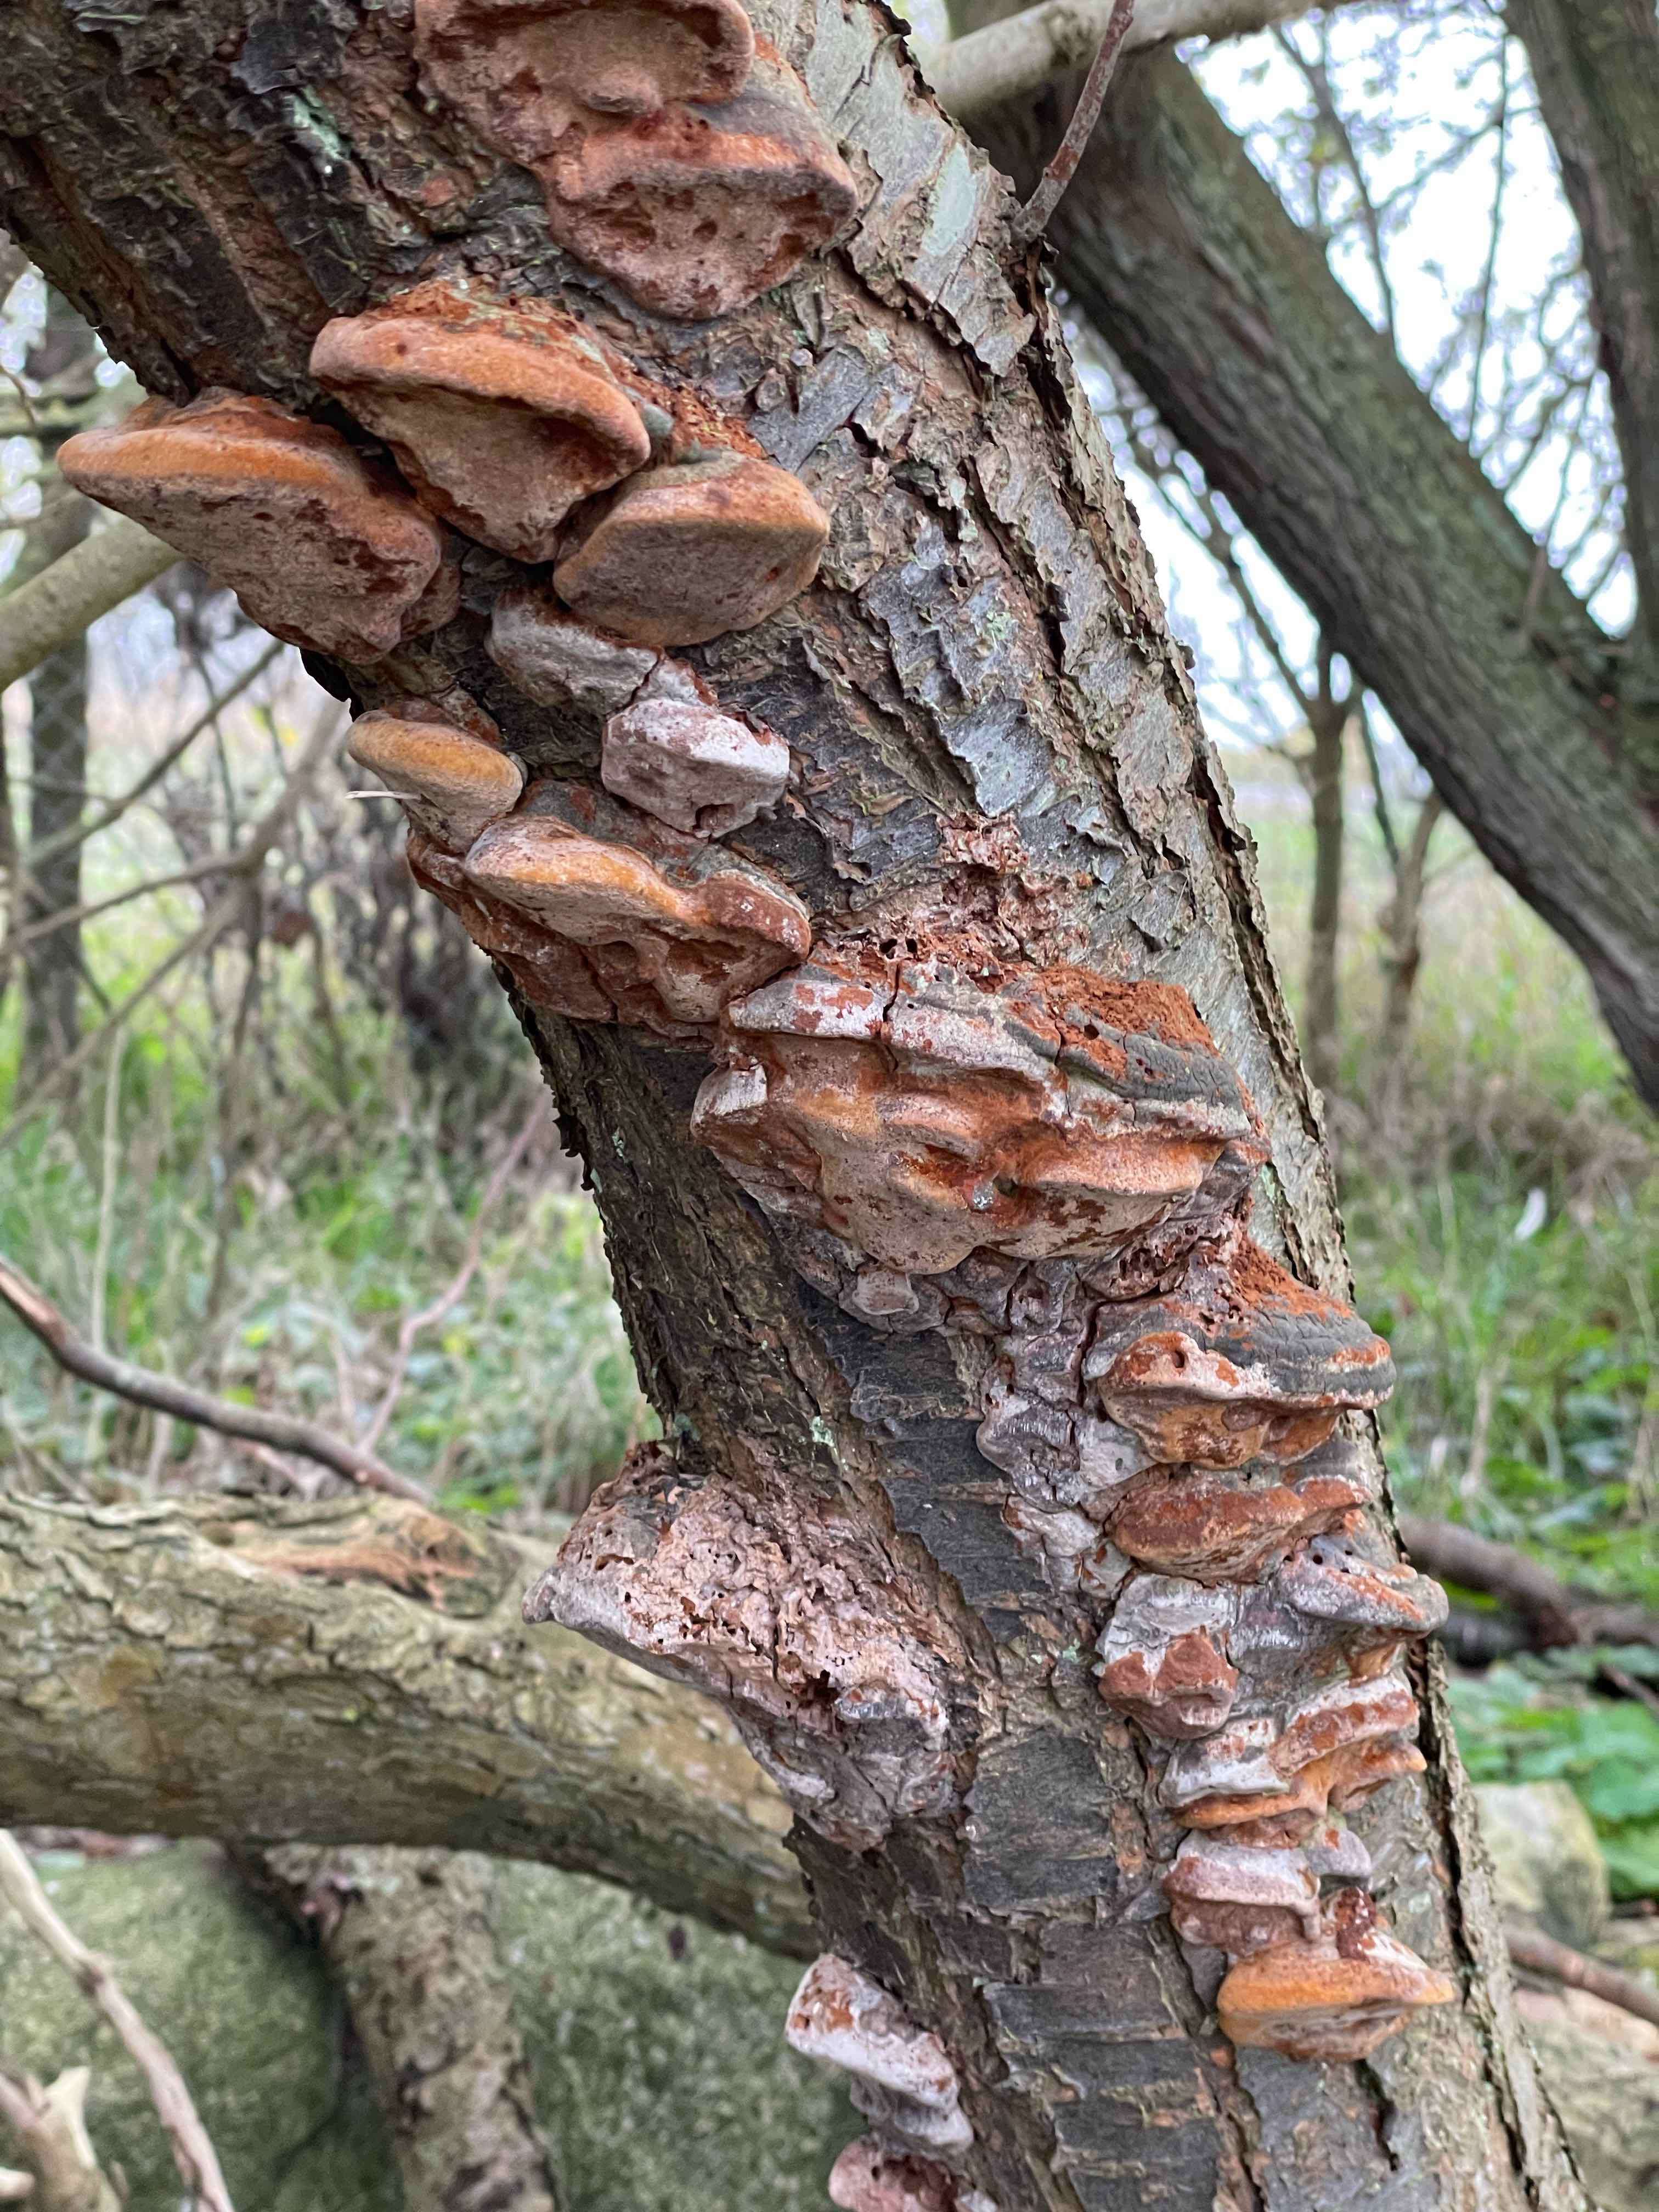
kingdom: Fungi
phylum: Basidiomycota
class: Agaricomycetes
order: Hymenochaetales
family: Hymenochaetaceae
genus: Phellinus
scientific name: Phellinus pomaceus
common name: blomme-ildporesvamp
